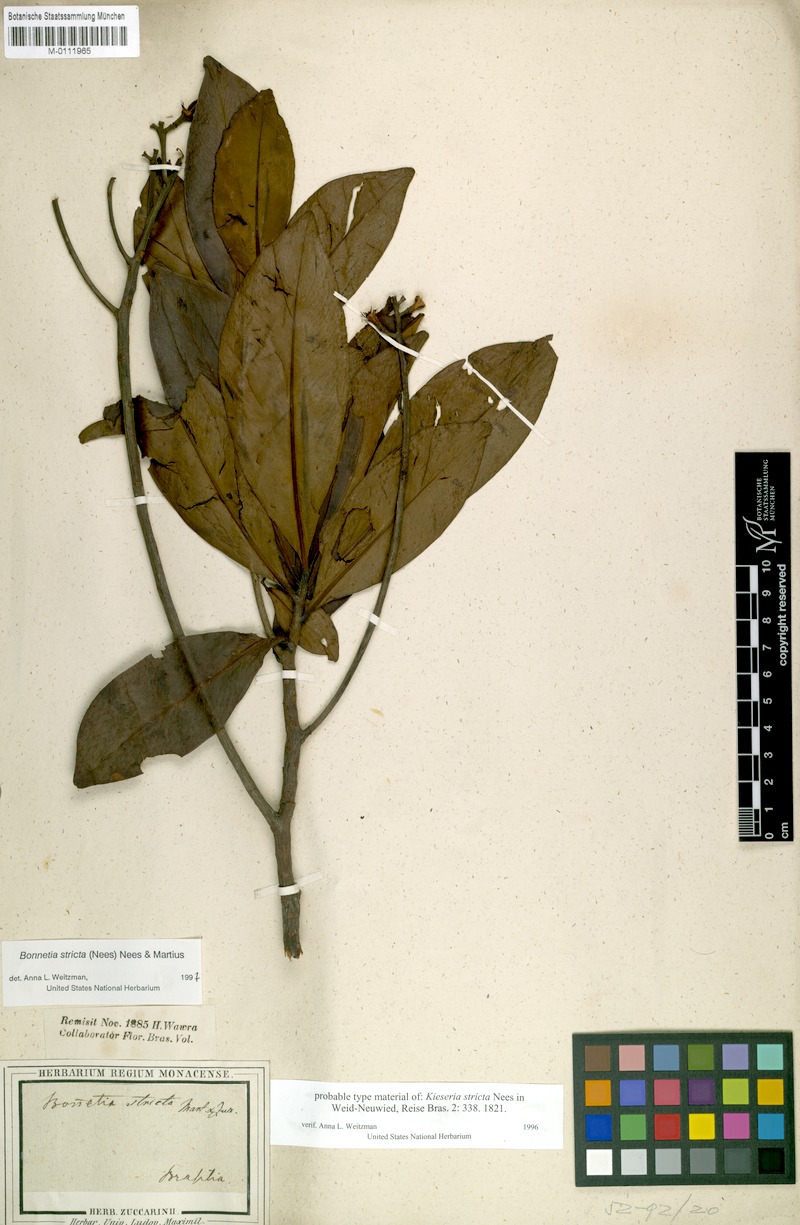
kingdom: Plantae
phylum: Tracheophyta
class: Magnoliopsida
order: Malpighiales
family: Bonnetiaceae
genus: Bonnetia
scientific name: Bonnetia stricta
